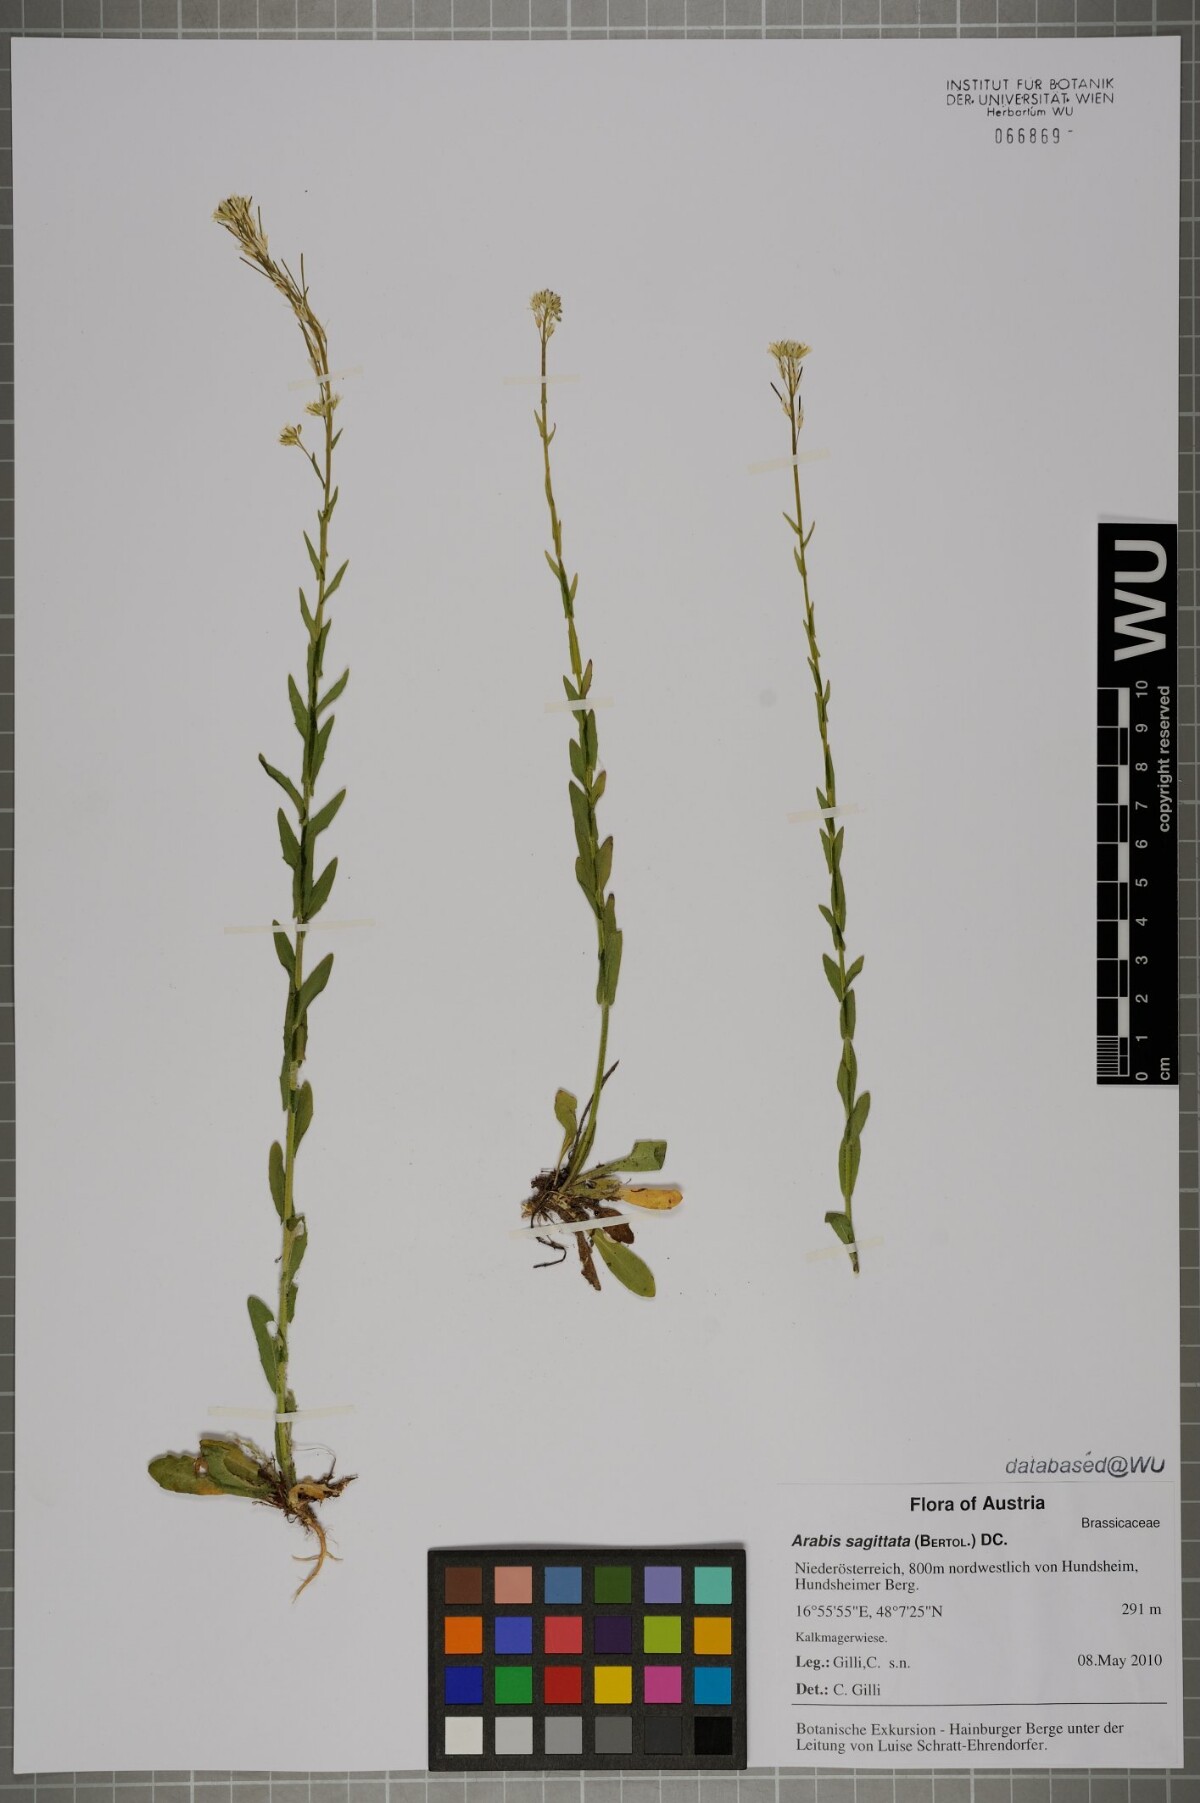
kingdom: Plantae
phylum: Tracheophyta
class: Magnoliopsida
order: Brassicales
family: Brassicaceae
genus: Arabis
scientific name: Arabis sagittata
